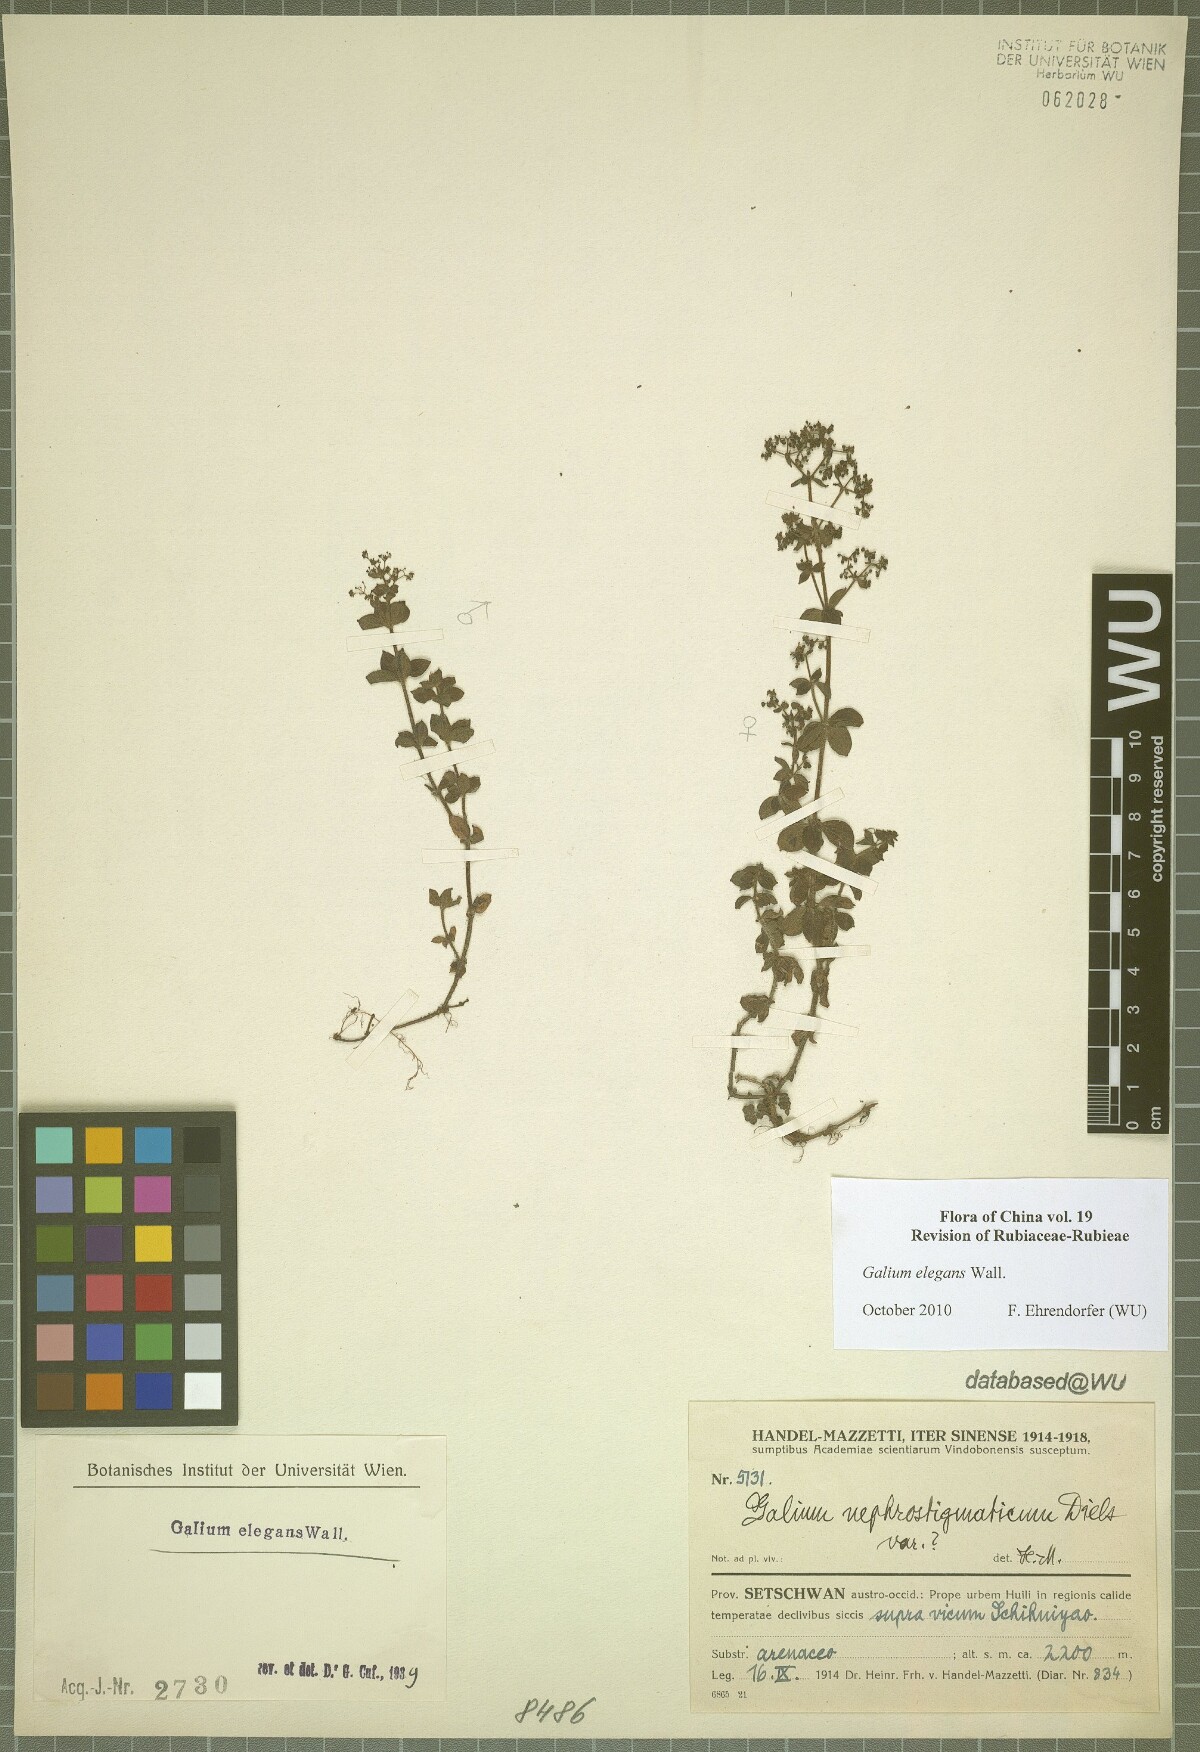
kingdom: Plantae
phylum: Tracheophyta
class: Magnoliopsida
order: Gentianales
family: Rubiaceae
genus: Galium
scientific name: Galium elegans
